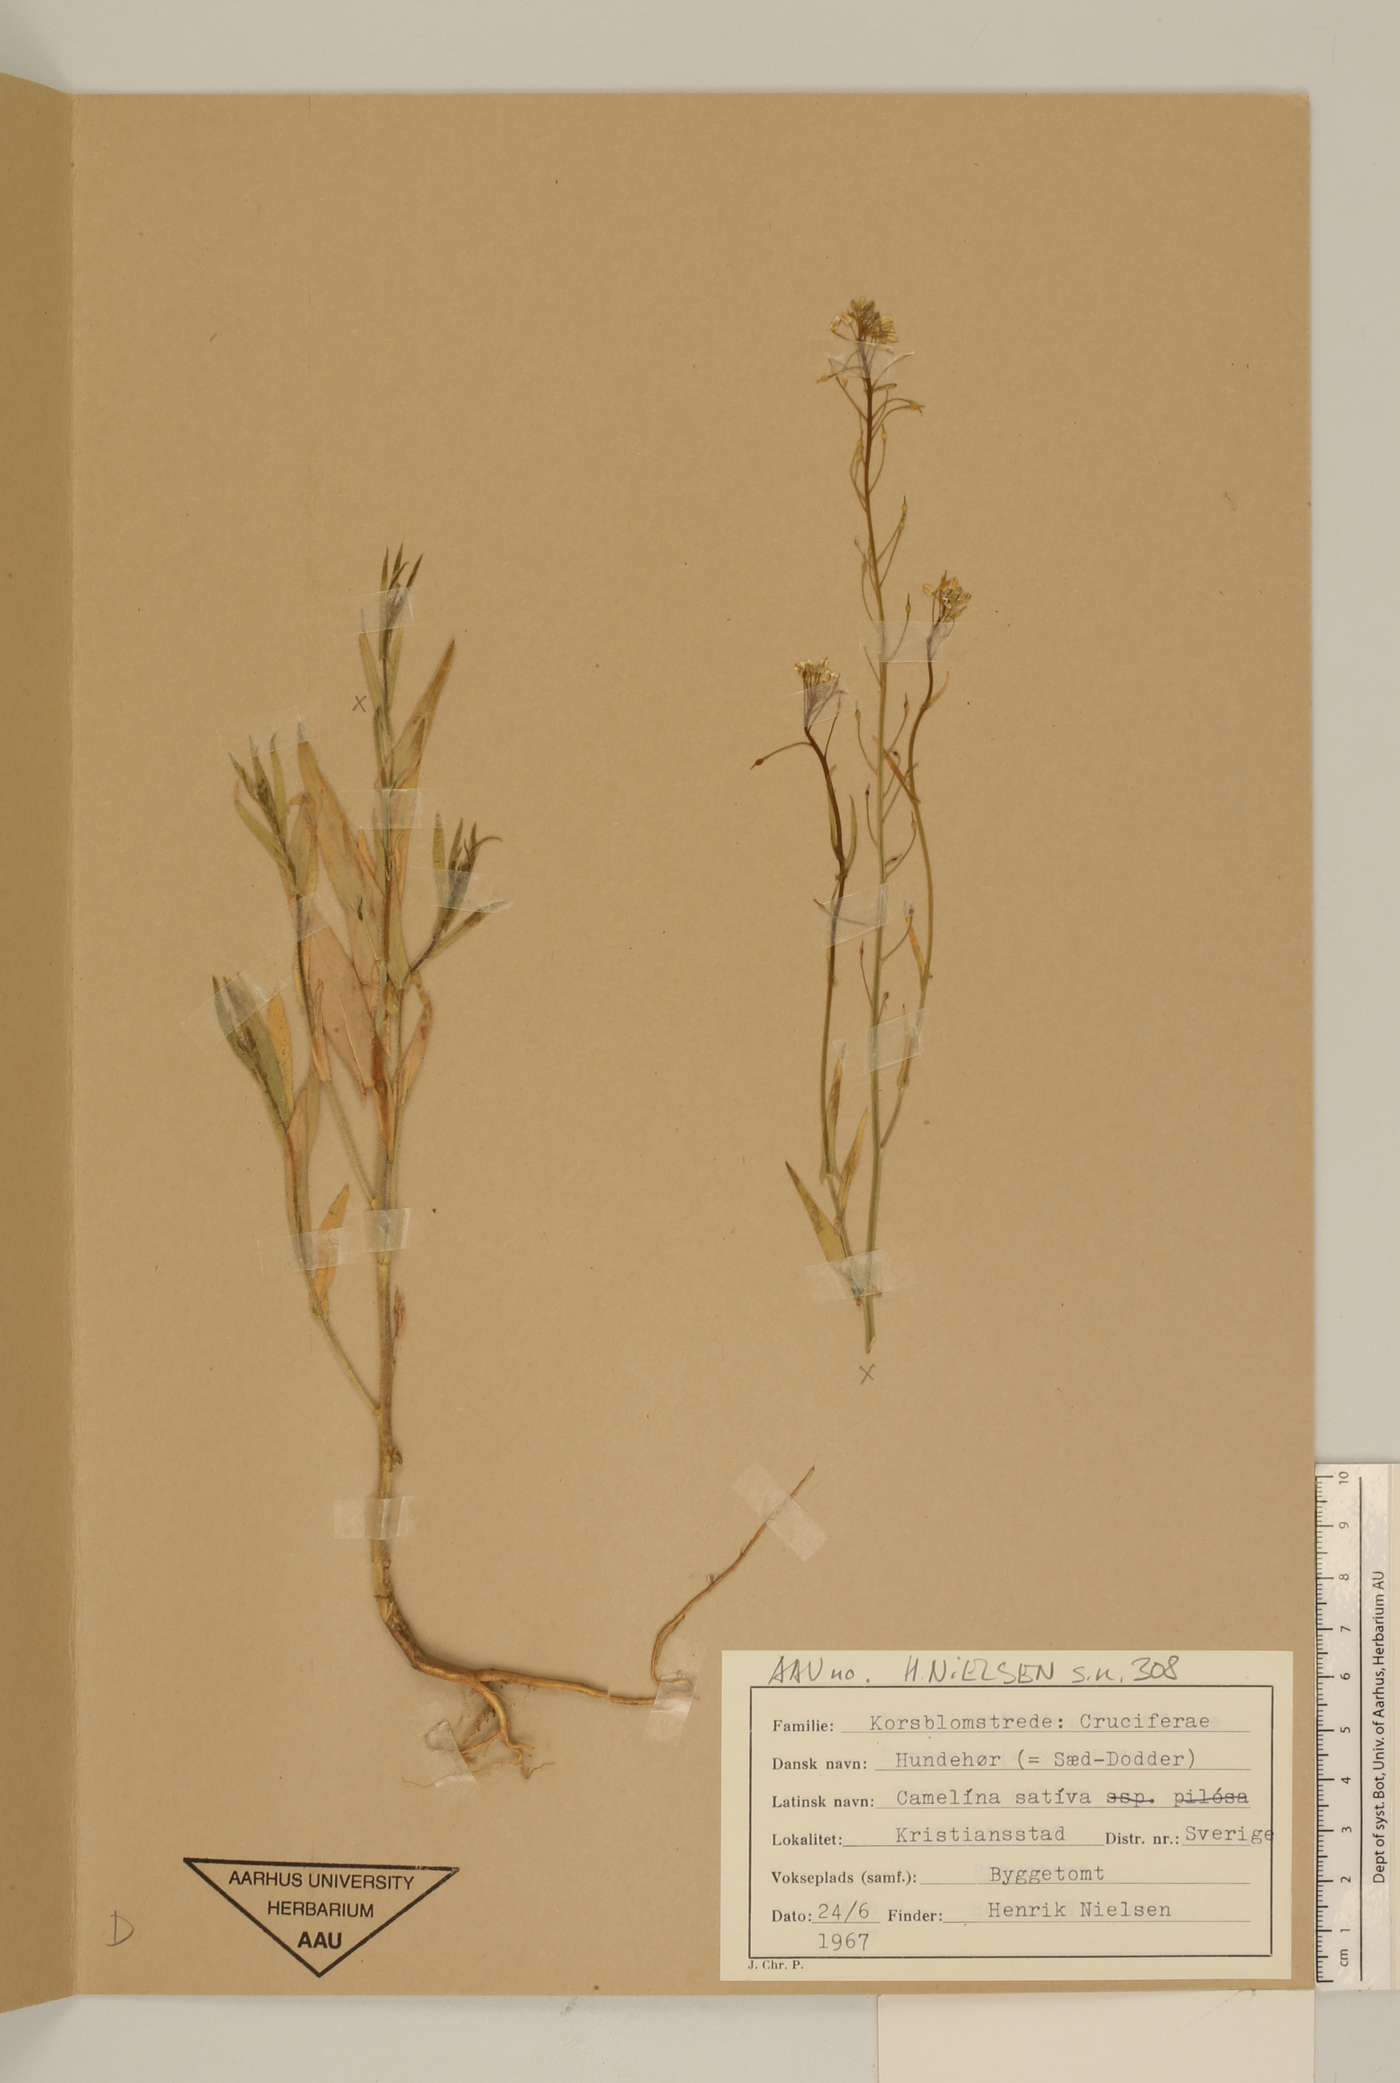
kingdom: Plantae
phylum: Tracheophyta
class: Magnoliopsida
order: Brassicales
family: Brassicaceae
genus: Camelina
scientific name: Camelina sativa
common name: Gold-of-pleasure
